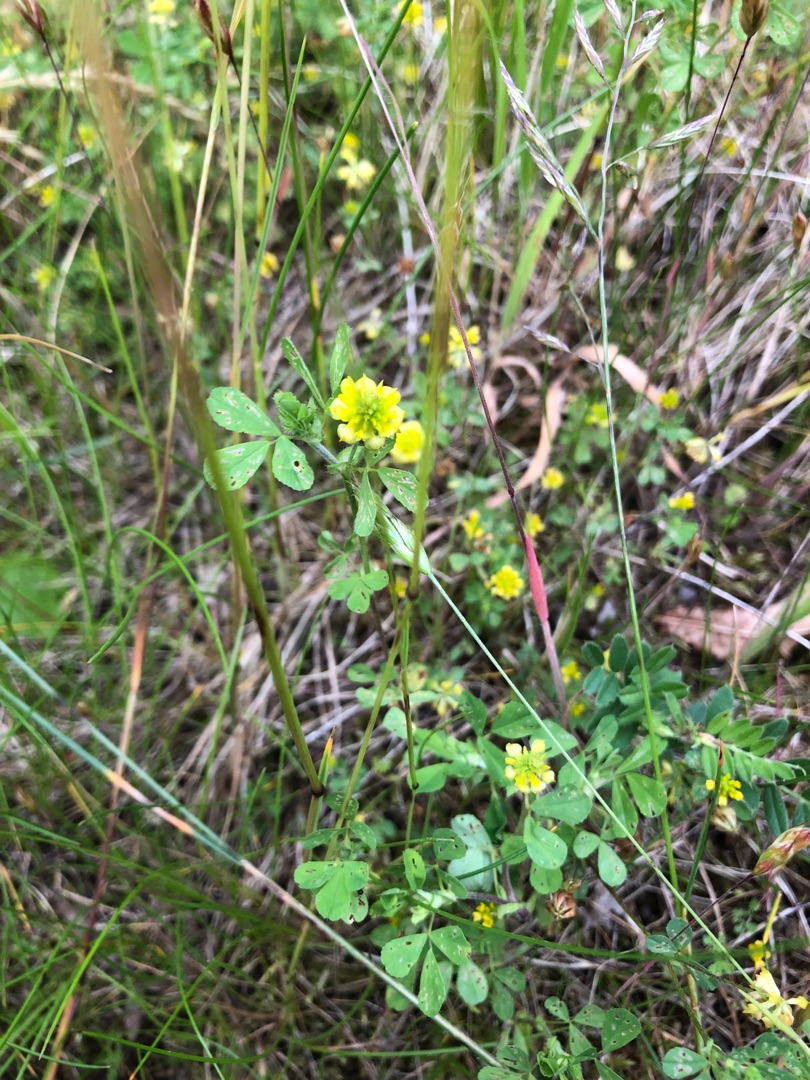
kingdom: Plantae
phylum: Tracheophyta
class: Magnoliopsida
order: Fabales
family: Fabaceae
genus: Trifolium
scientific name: Trifolium campestre
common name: Gul kløver
